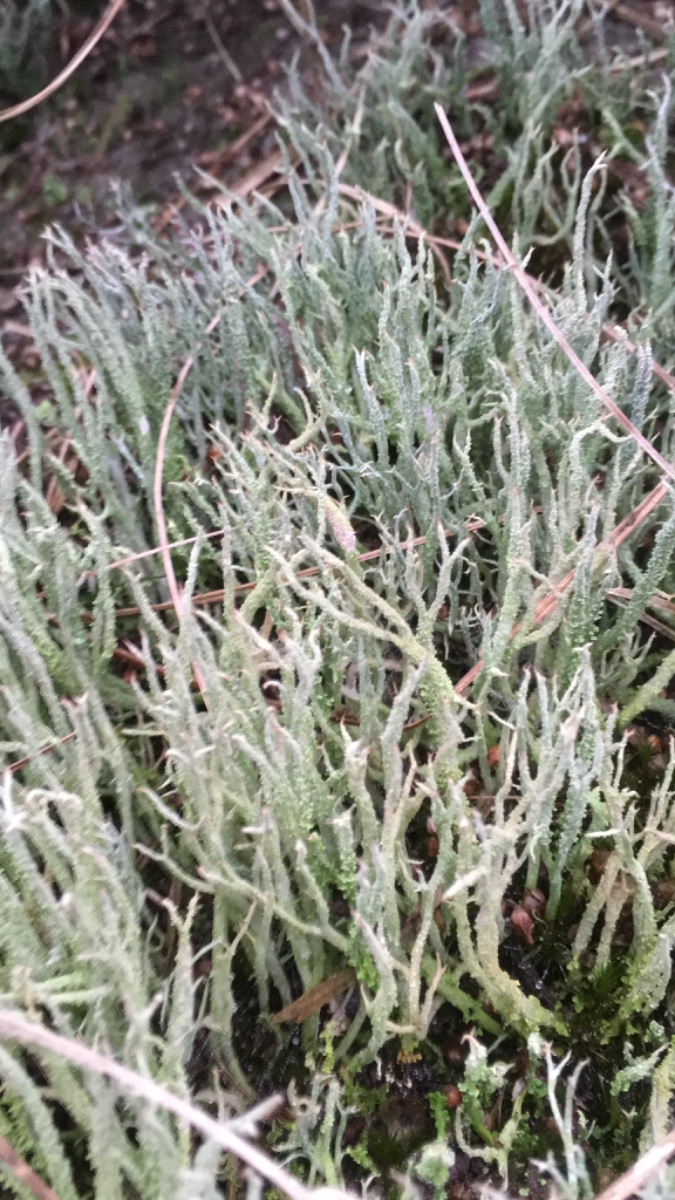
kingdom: Fungi
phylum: Ascomycota
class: Lecanoromycetes
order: Lecanorales
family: Cladoniaceae
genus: Cladonia
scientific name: Cladonia scabriuscula
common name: ru bægerlav
